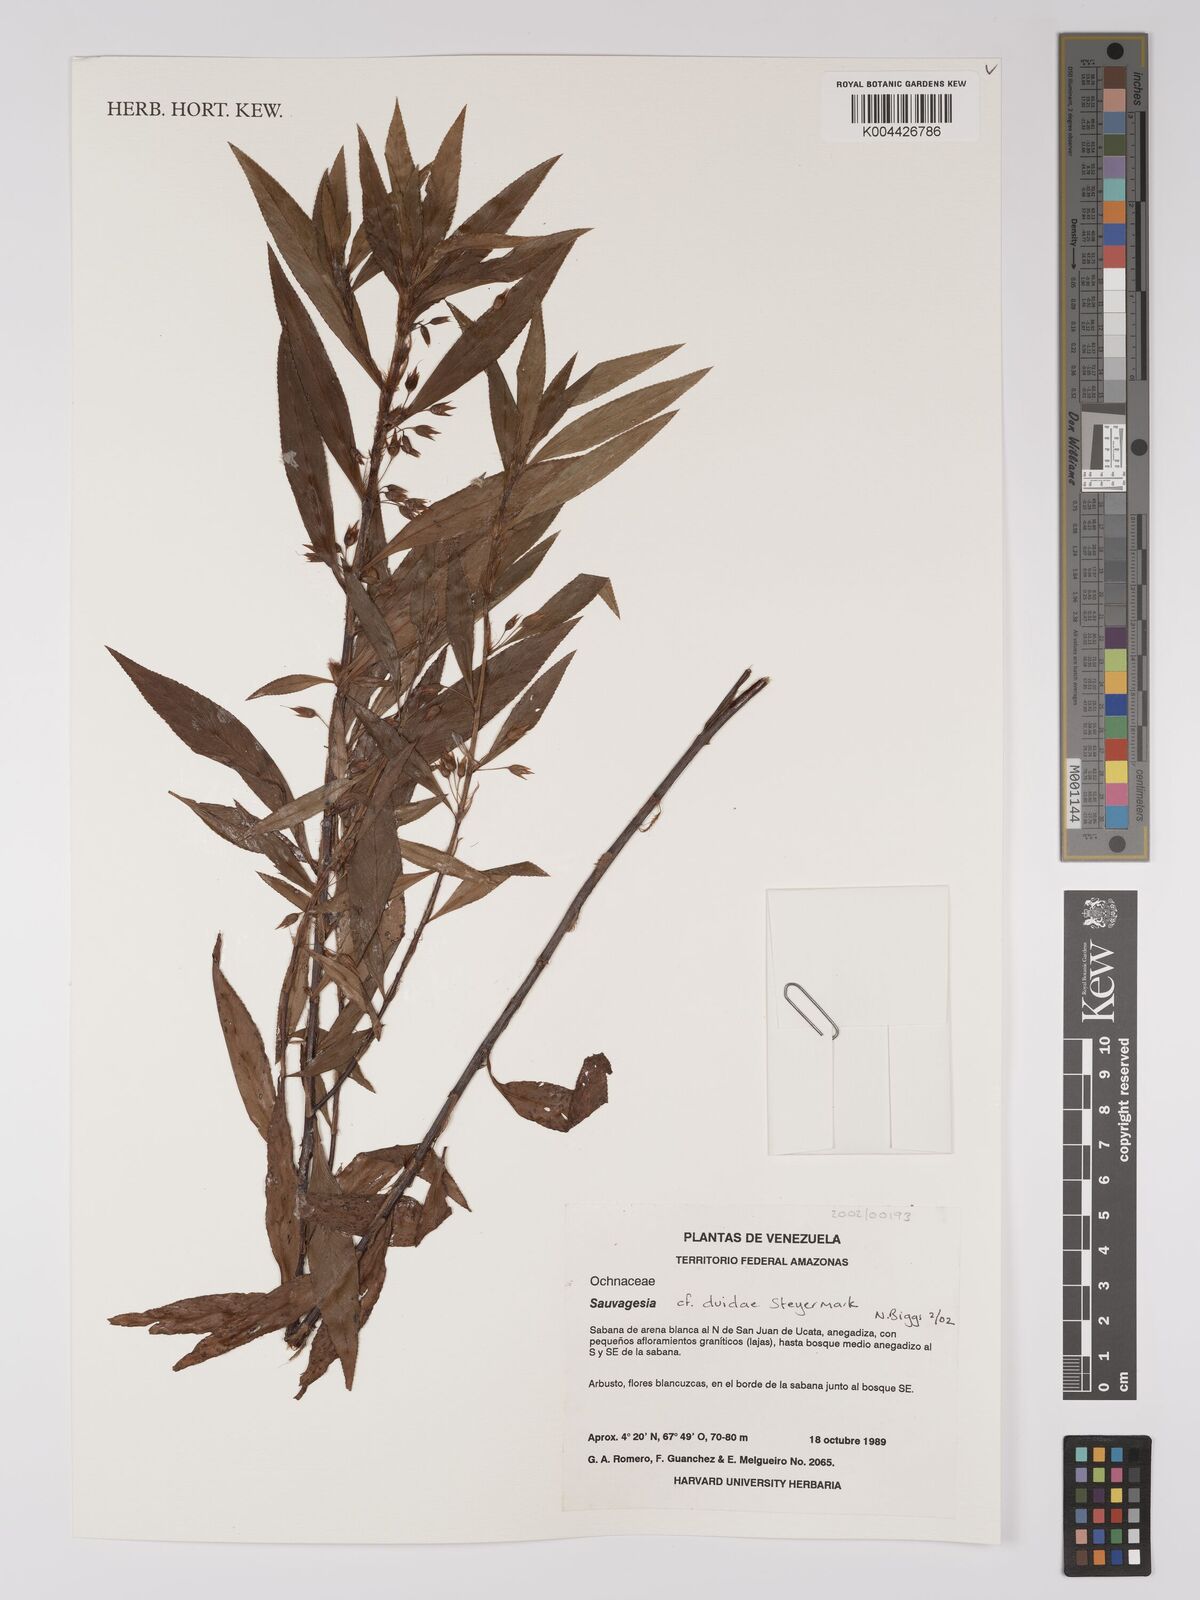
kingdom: Plantae
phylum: Tracheophyta
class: Magnoliopsida
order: Malpighiales
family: Ochnaceae
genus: Sauvagesia
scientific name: Sauvagesia erioclada
